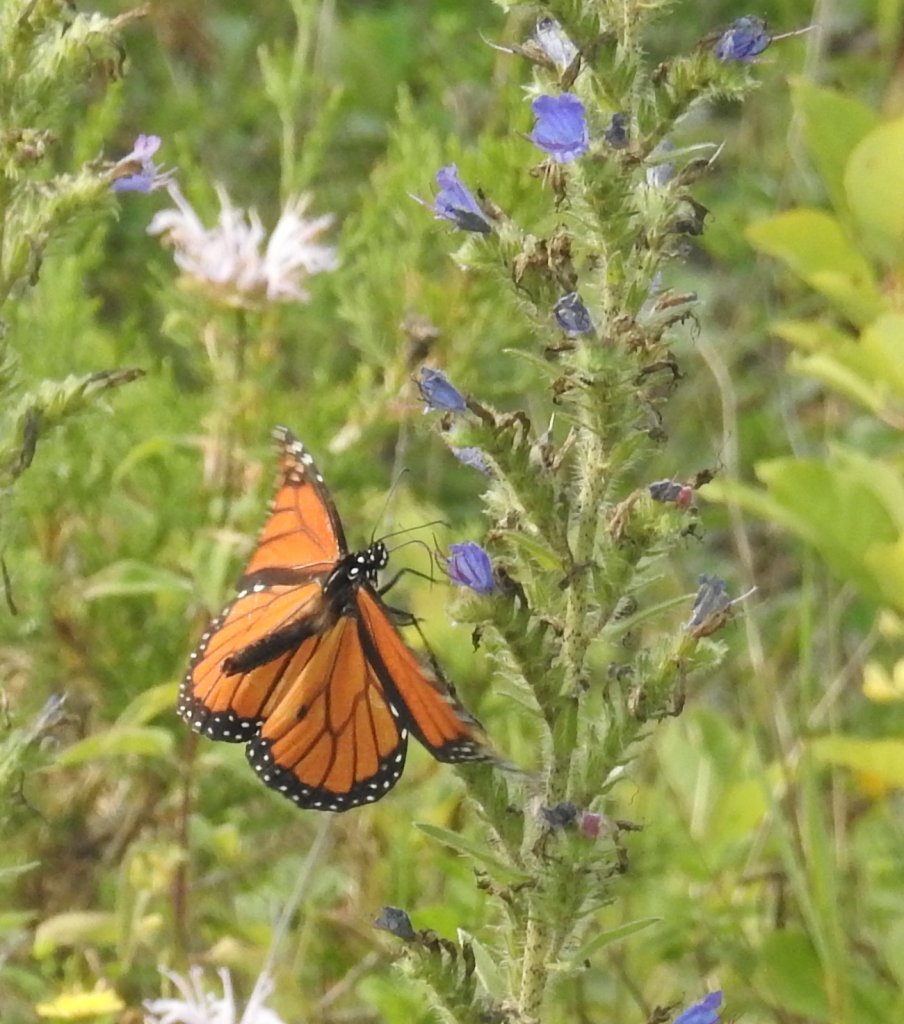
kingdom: Animalia
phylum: Arthropoda
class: Insecta
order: Lepidoptera
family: Nymphalidae
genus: Danaus
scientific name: Danaus plexippus
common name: Monarch
